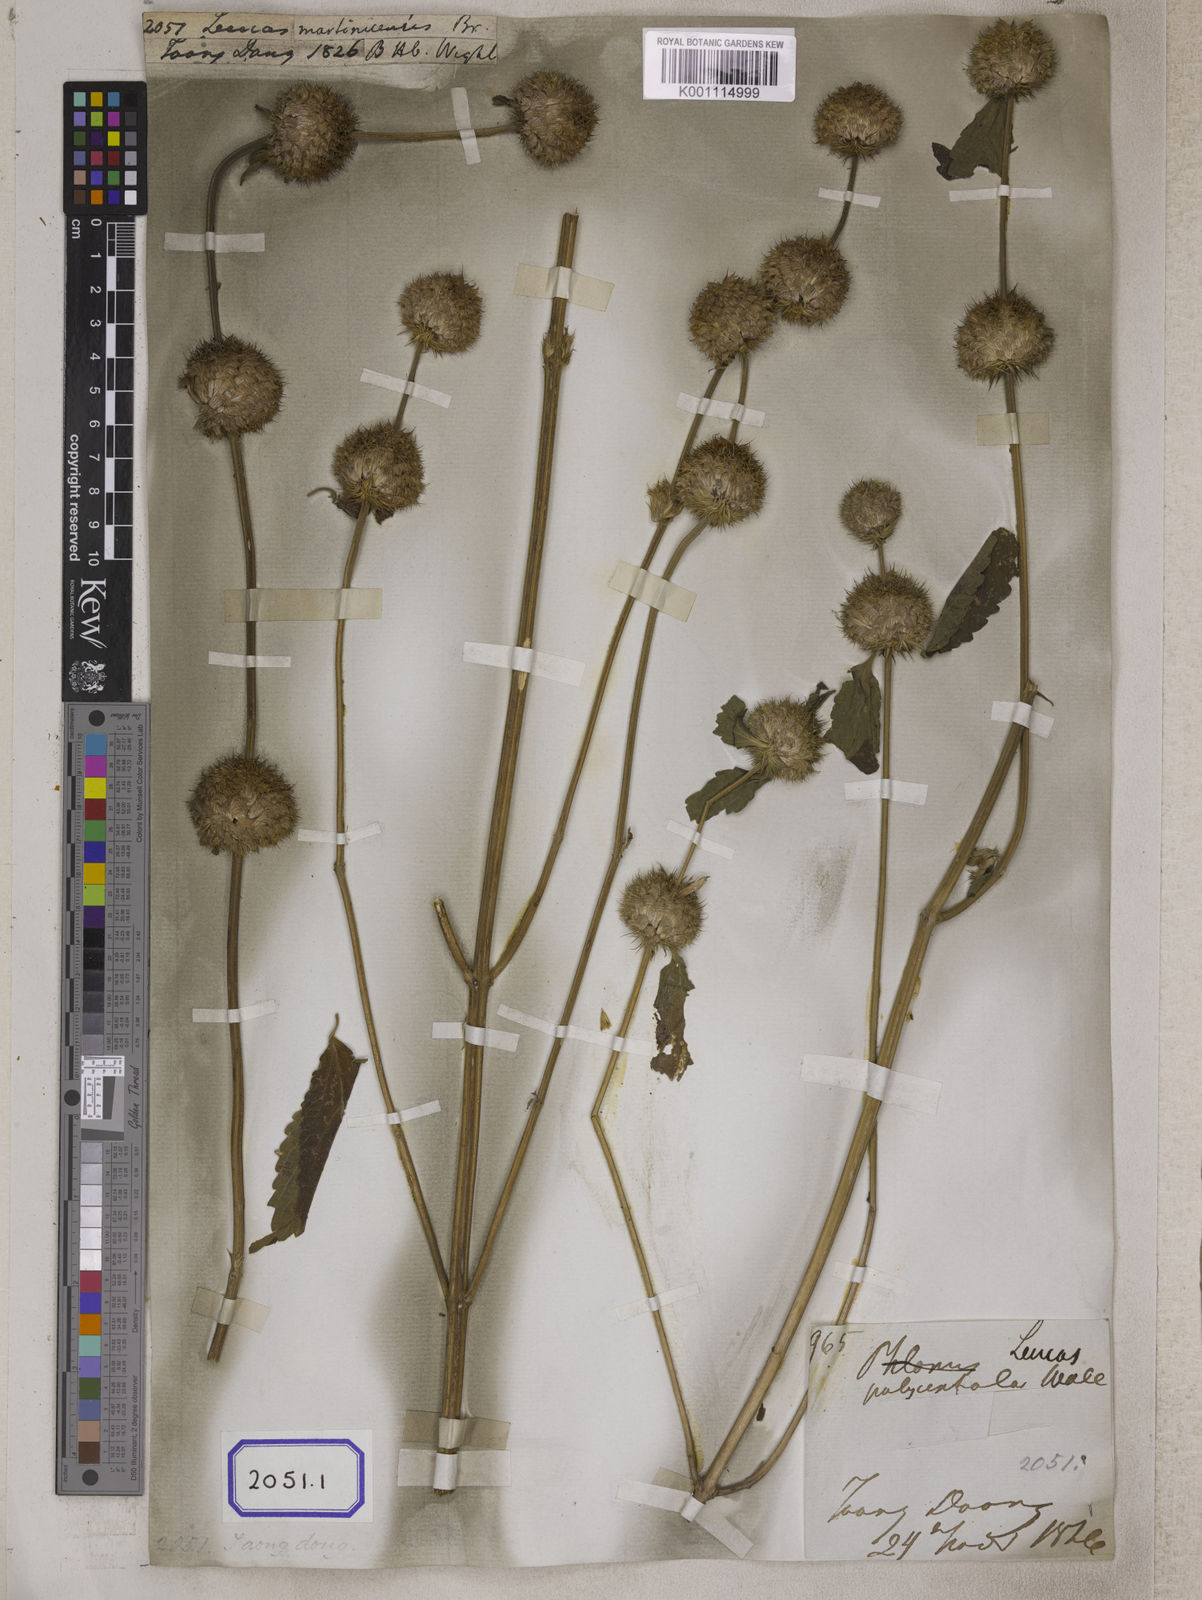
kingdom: Plantae
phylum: Tracheophyta
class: Magnoliopsida
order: Lamiales
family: Lamiaceae
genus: Leucas
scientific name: Leucas
